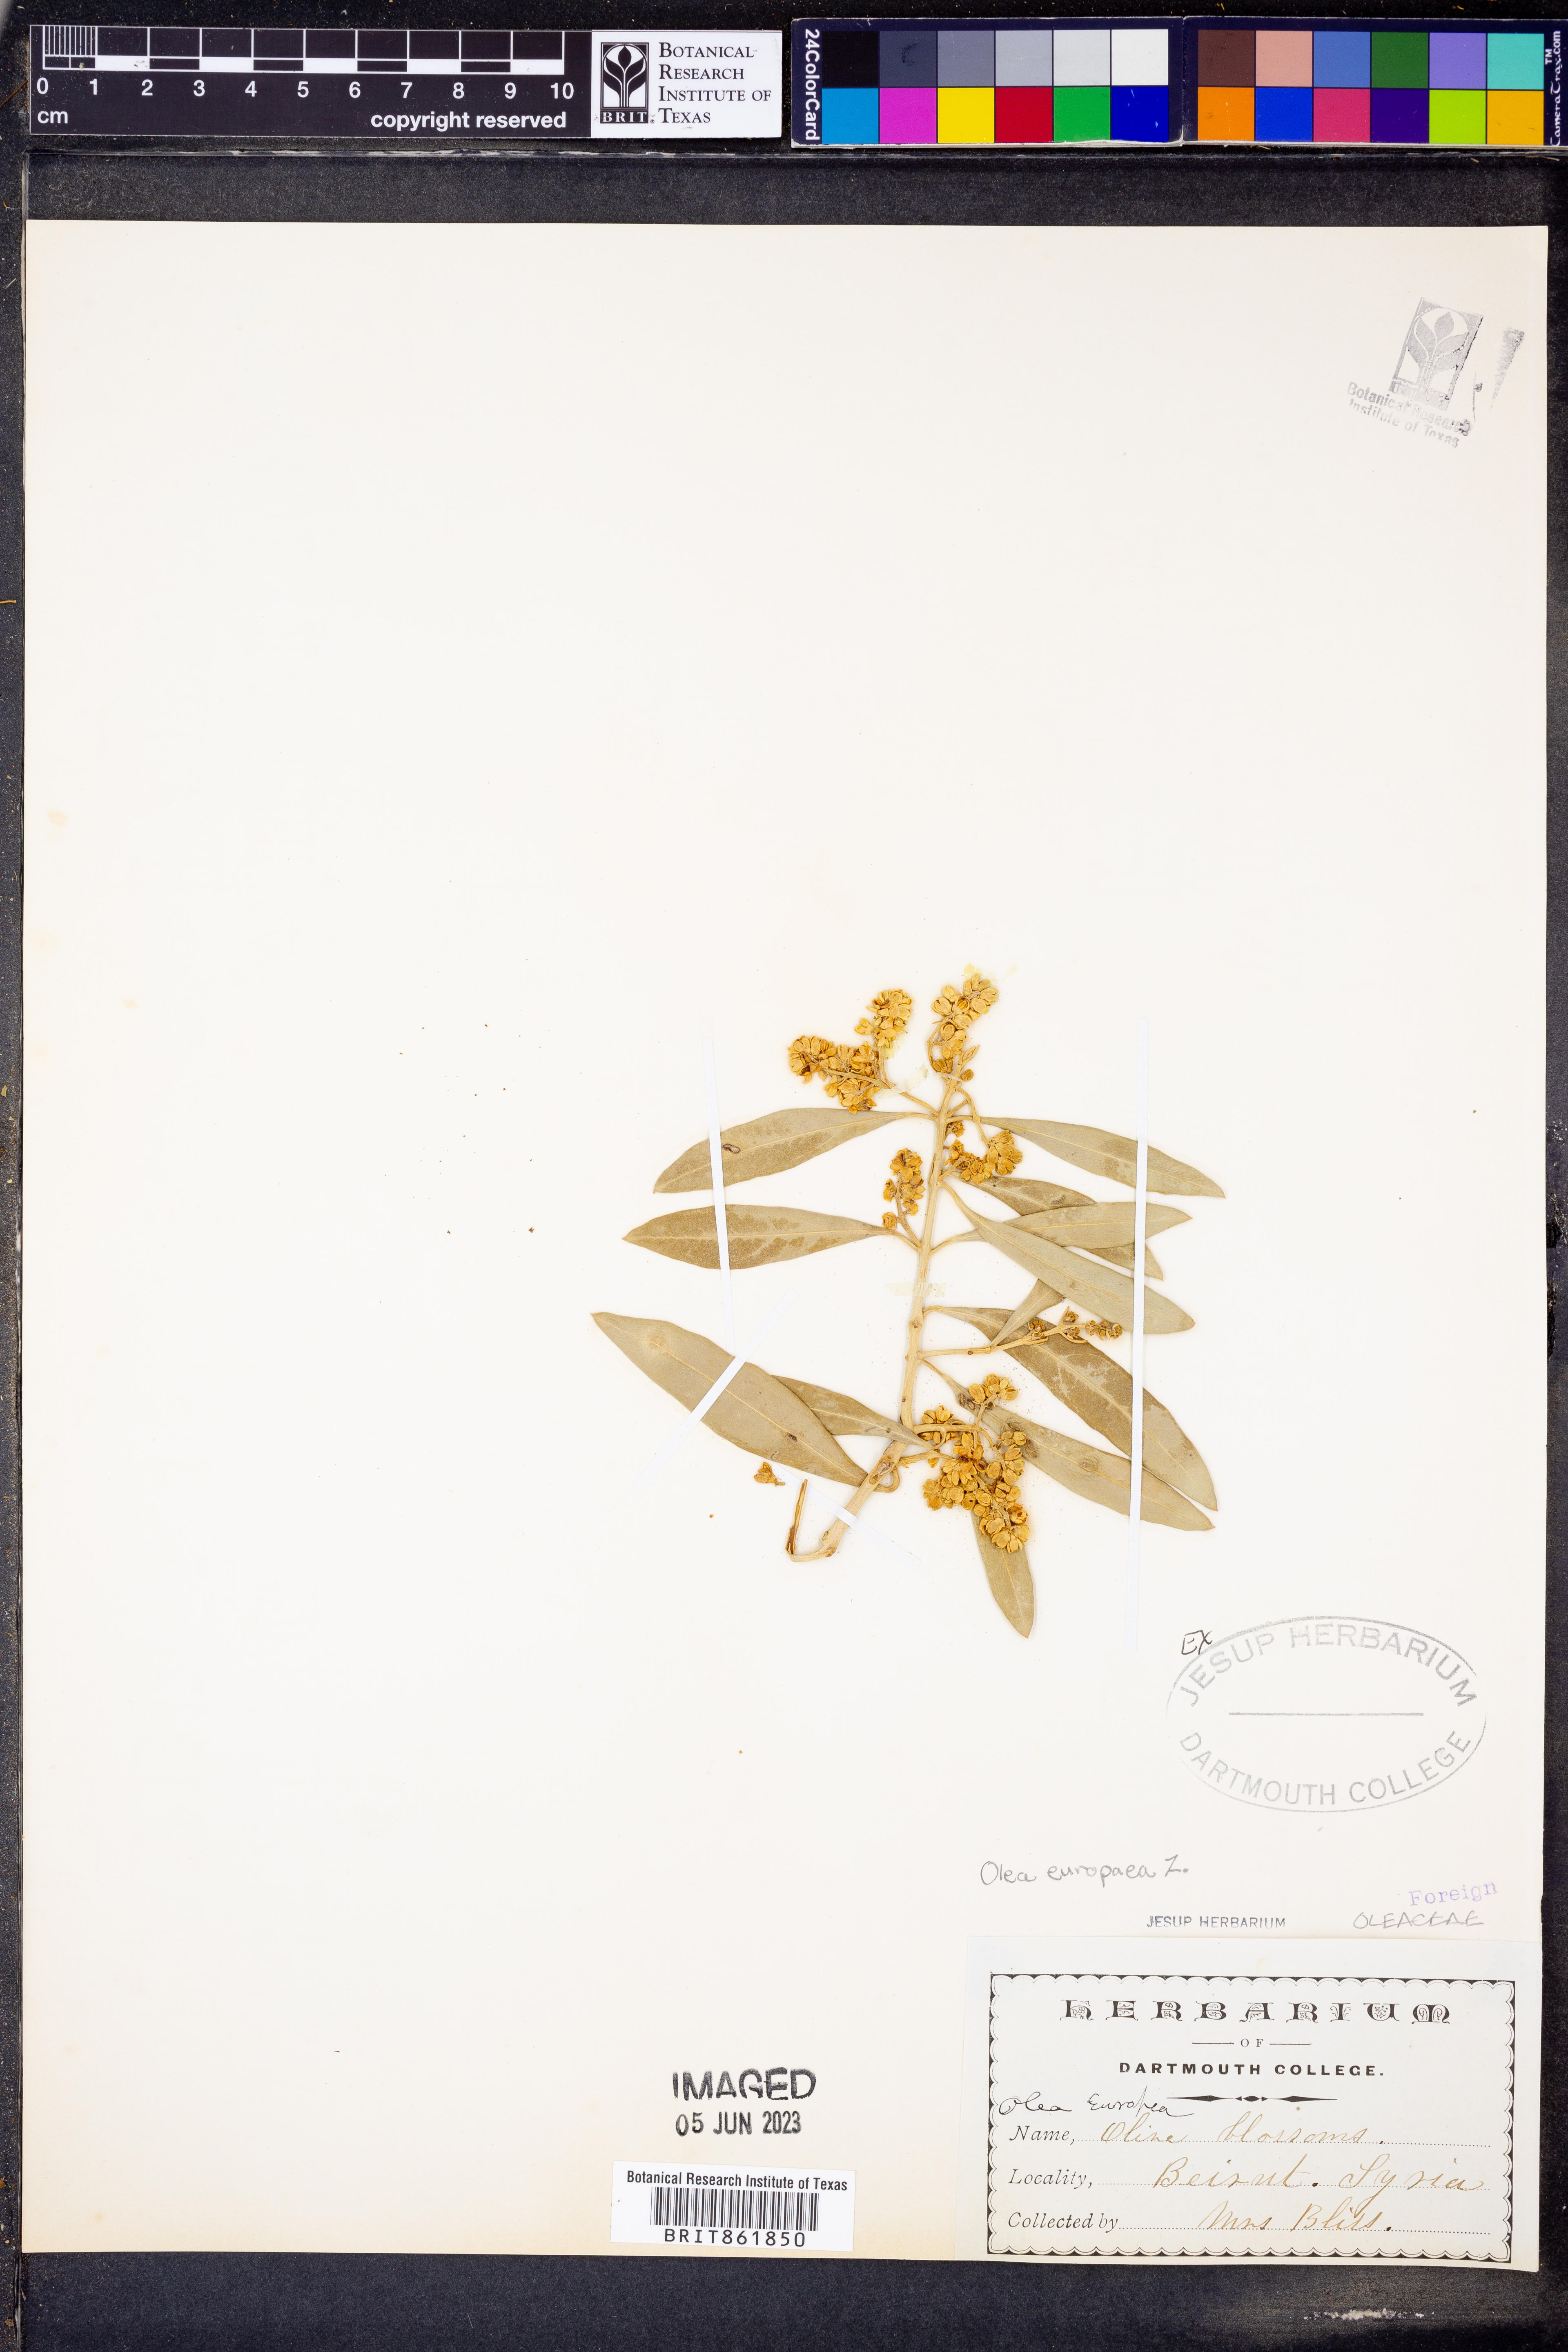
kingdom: Plantae
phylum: Tracheophyta
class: Magnoliopsida
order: Lamiales
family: Oleaceae
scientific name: Oleaceae
